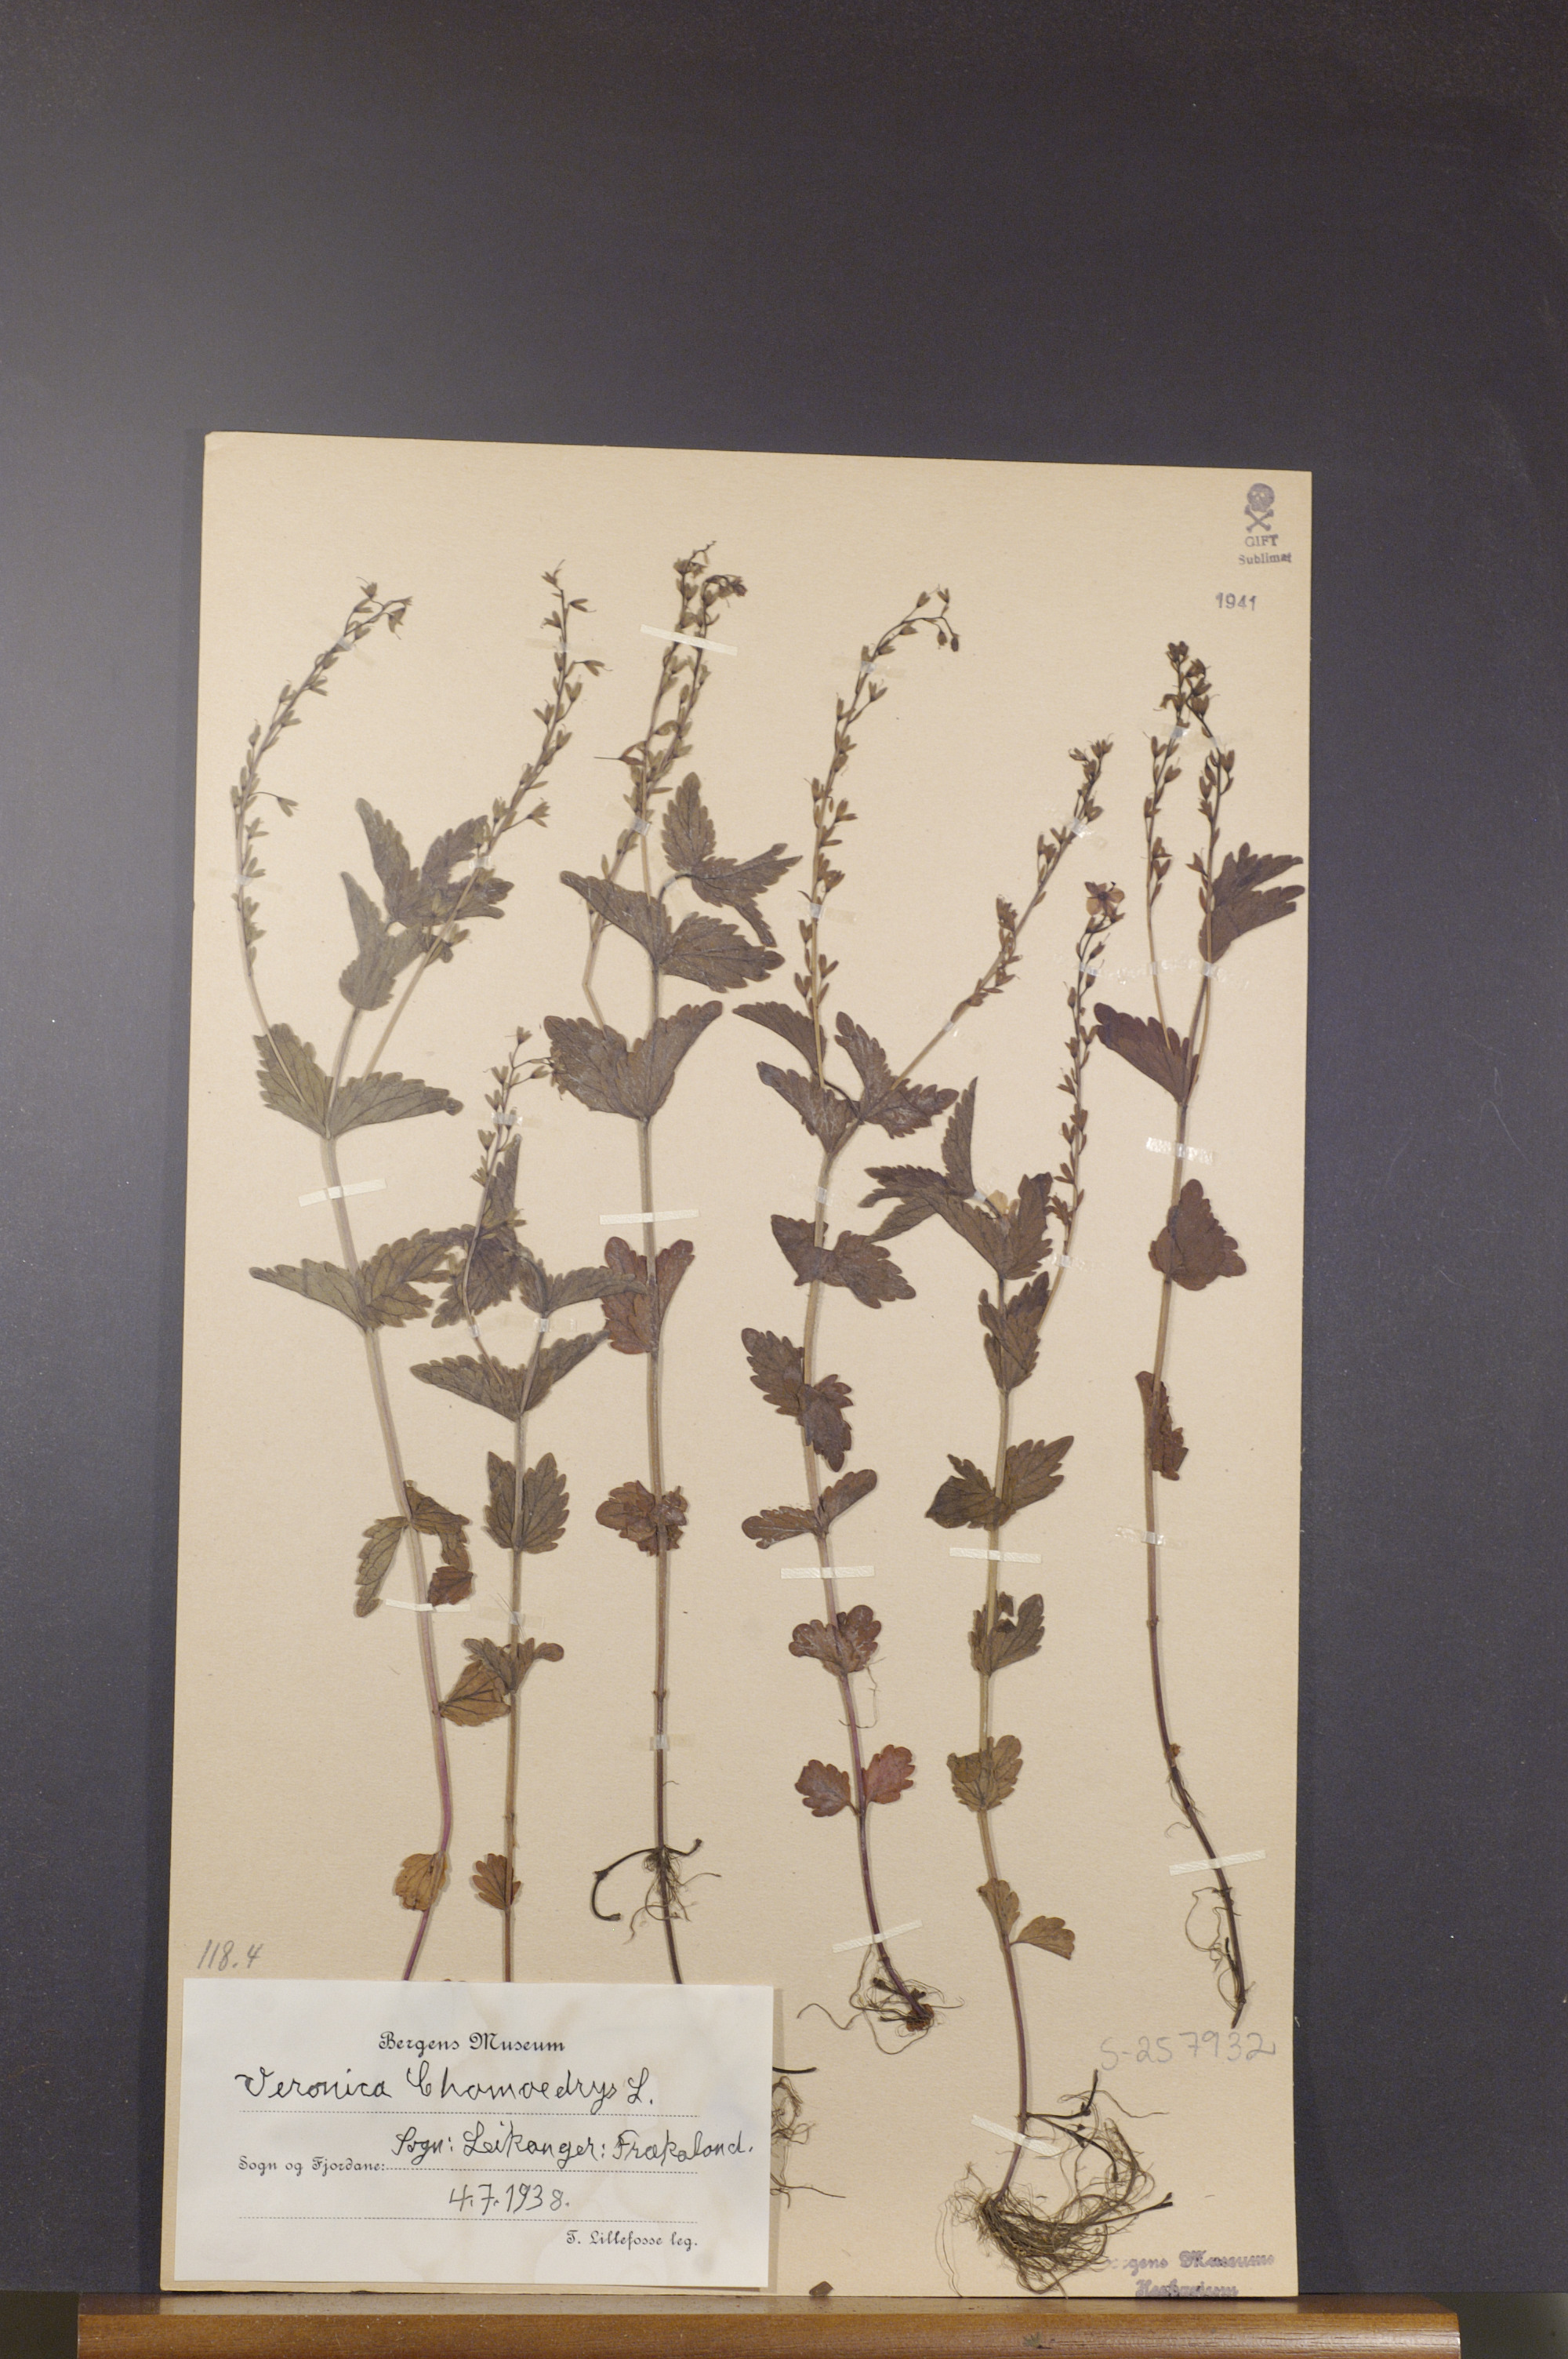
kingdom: Plantae
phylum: Tracheophyta
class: Magnoliopsida
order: Lamiales
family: Plantaginaceae
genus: Veronica
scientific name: Veronica chamaedrys
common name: Germander speedwell
